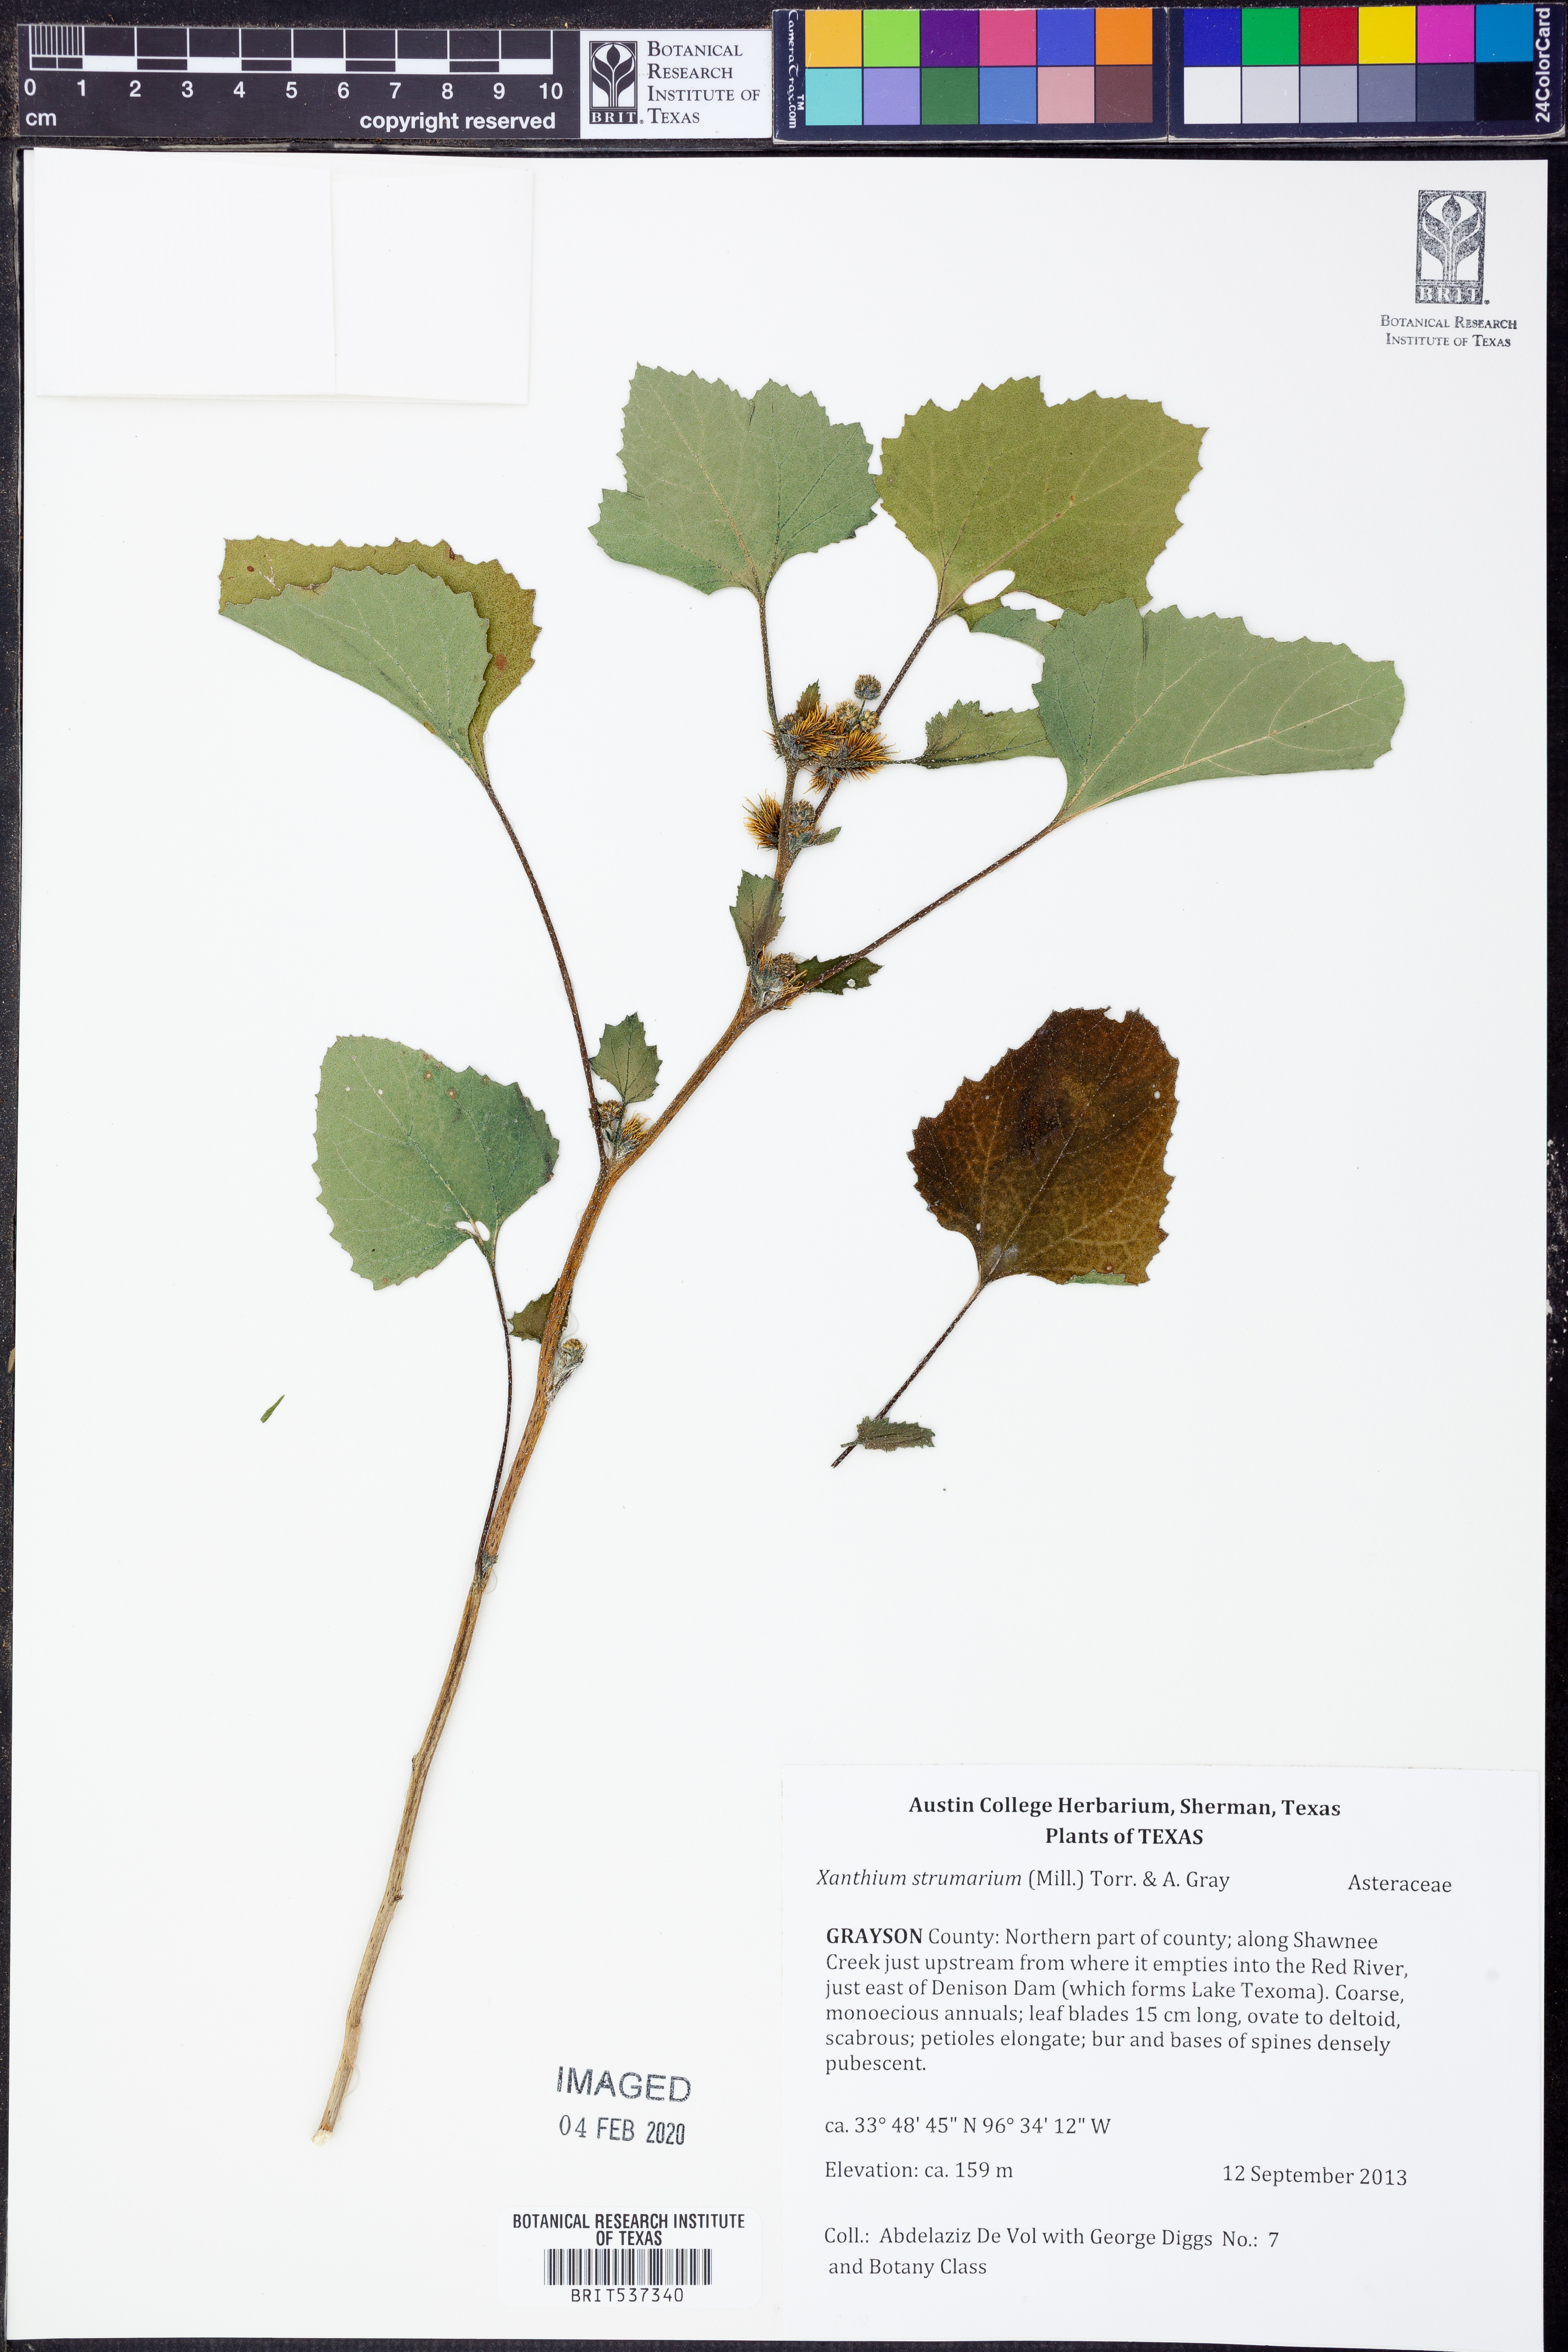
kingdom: Plantae
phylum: Tracheophyta
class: Magnoliopsida
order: Asterales
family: Asteraceae
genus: Xanthium
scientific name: Xanthium strumarium
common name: Rough cocklebur
